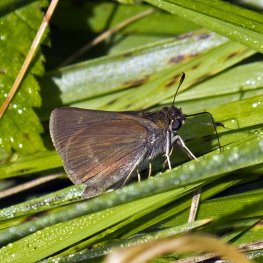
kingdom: Animalia
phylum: Arthropoda
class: Insecta
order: Lepidoptera
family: Hesperiidae
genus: Euphyes
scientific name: Euphyes vestris
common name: Dun Skipper
